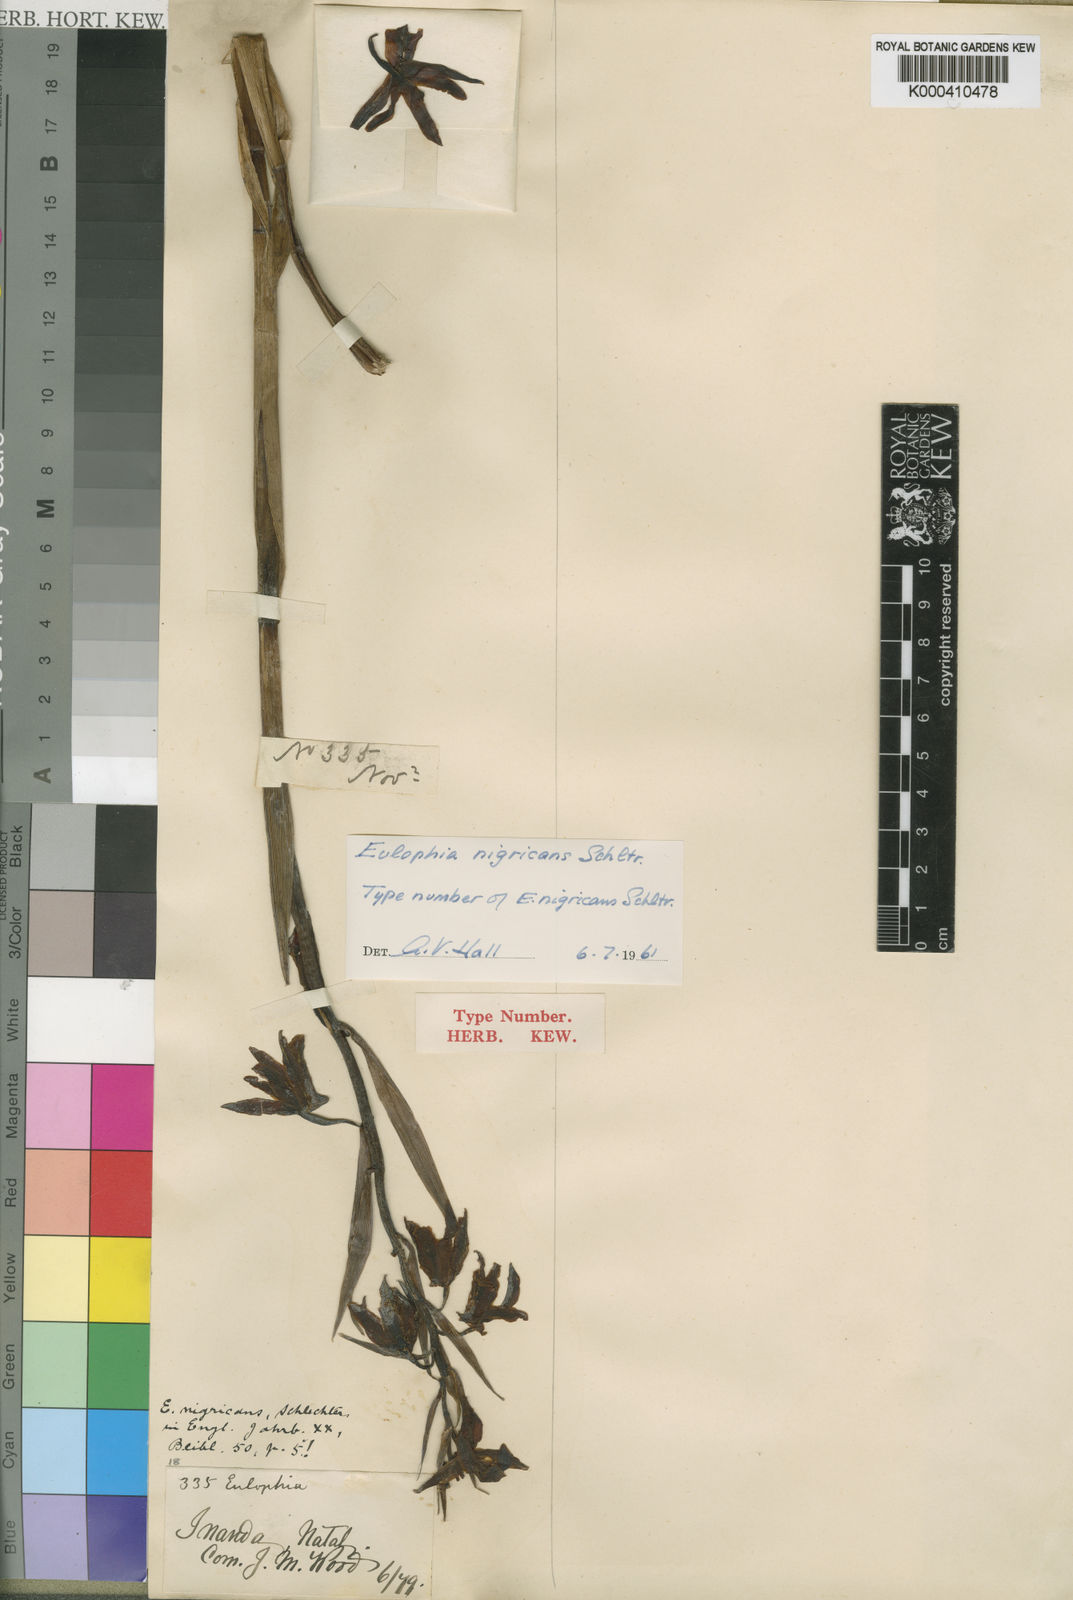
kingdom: Plantae
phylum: Tracheophyta
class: Liliopsida
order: Asparagales
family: Orchidaceae
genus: Eulophia
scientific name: Eulophia adenoglossa
